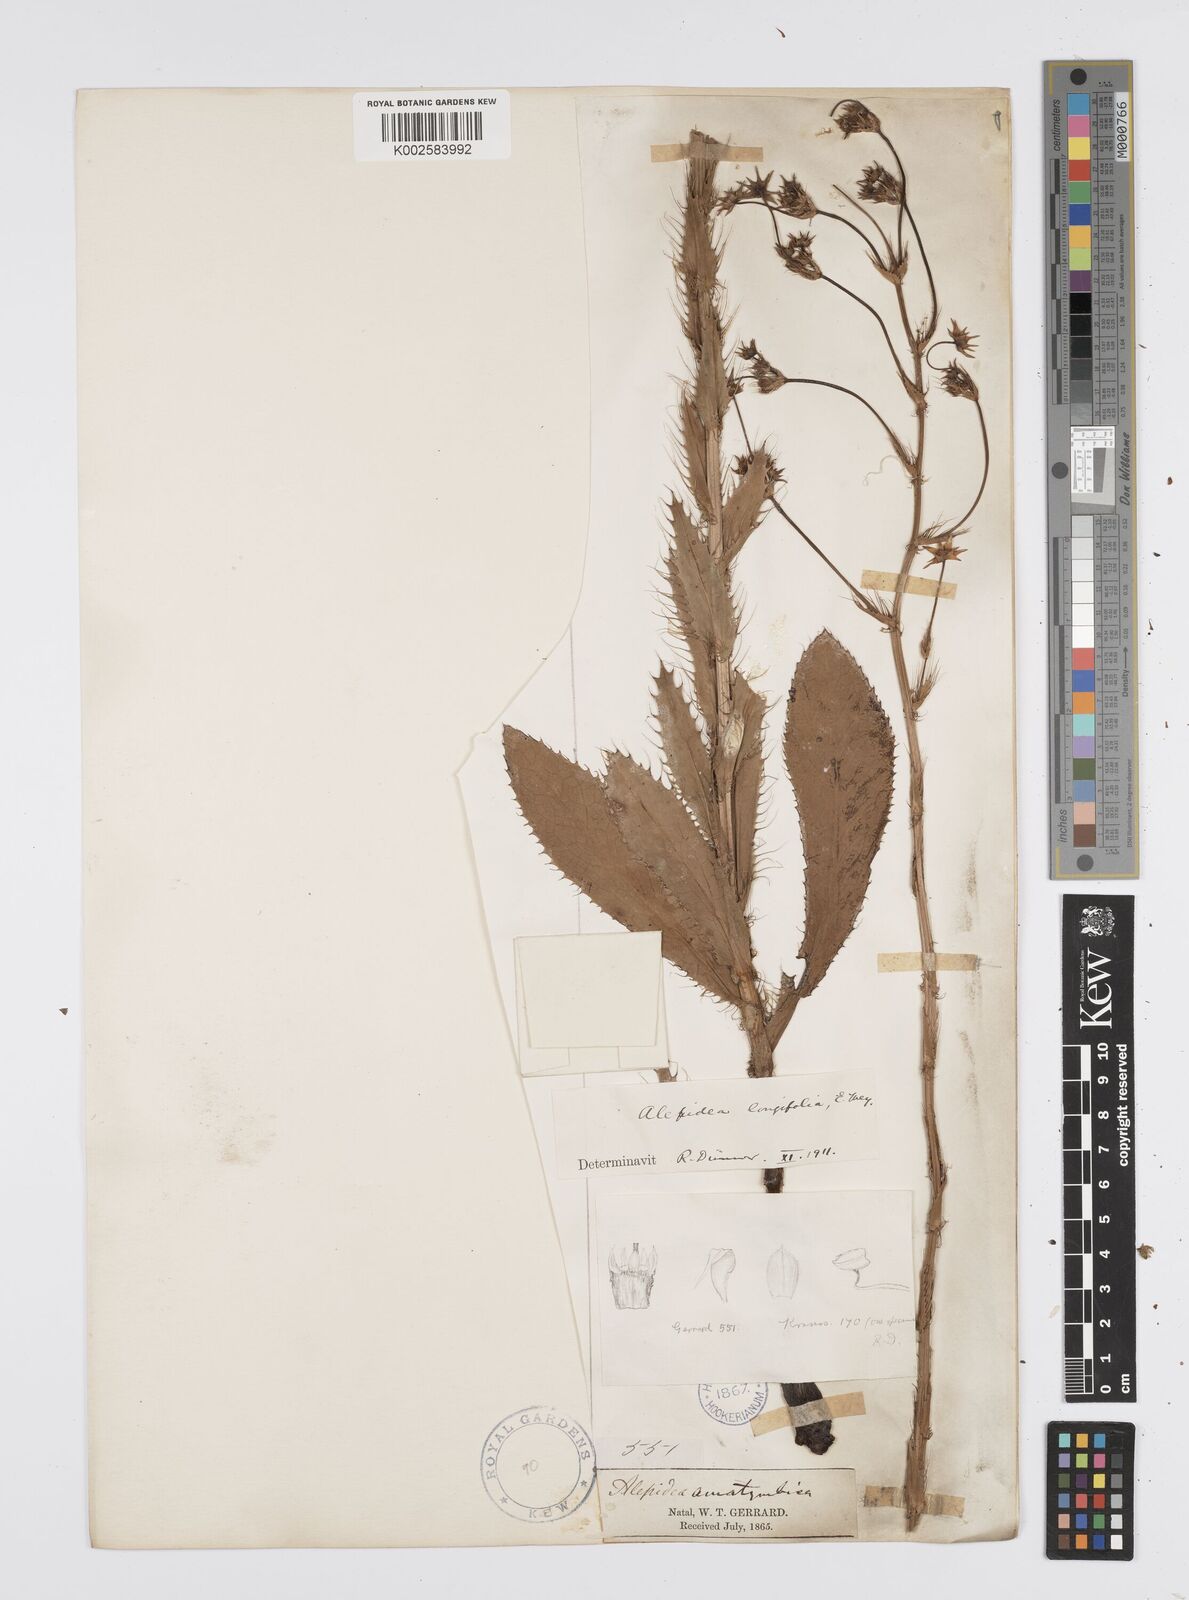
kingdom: Plantae
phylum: Tracheophyta
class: Magnoliopsida
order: Apiales
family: Apiaceae
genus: Alepidea
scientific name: Alepidea
